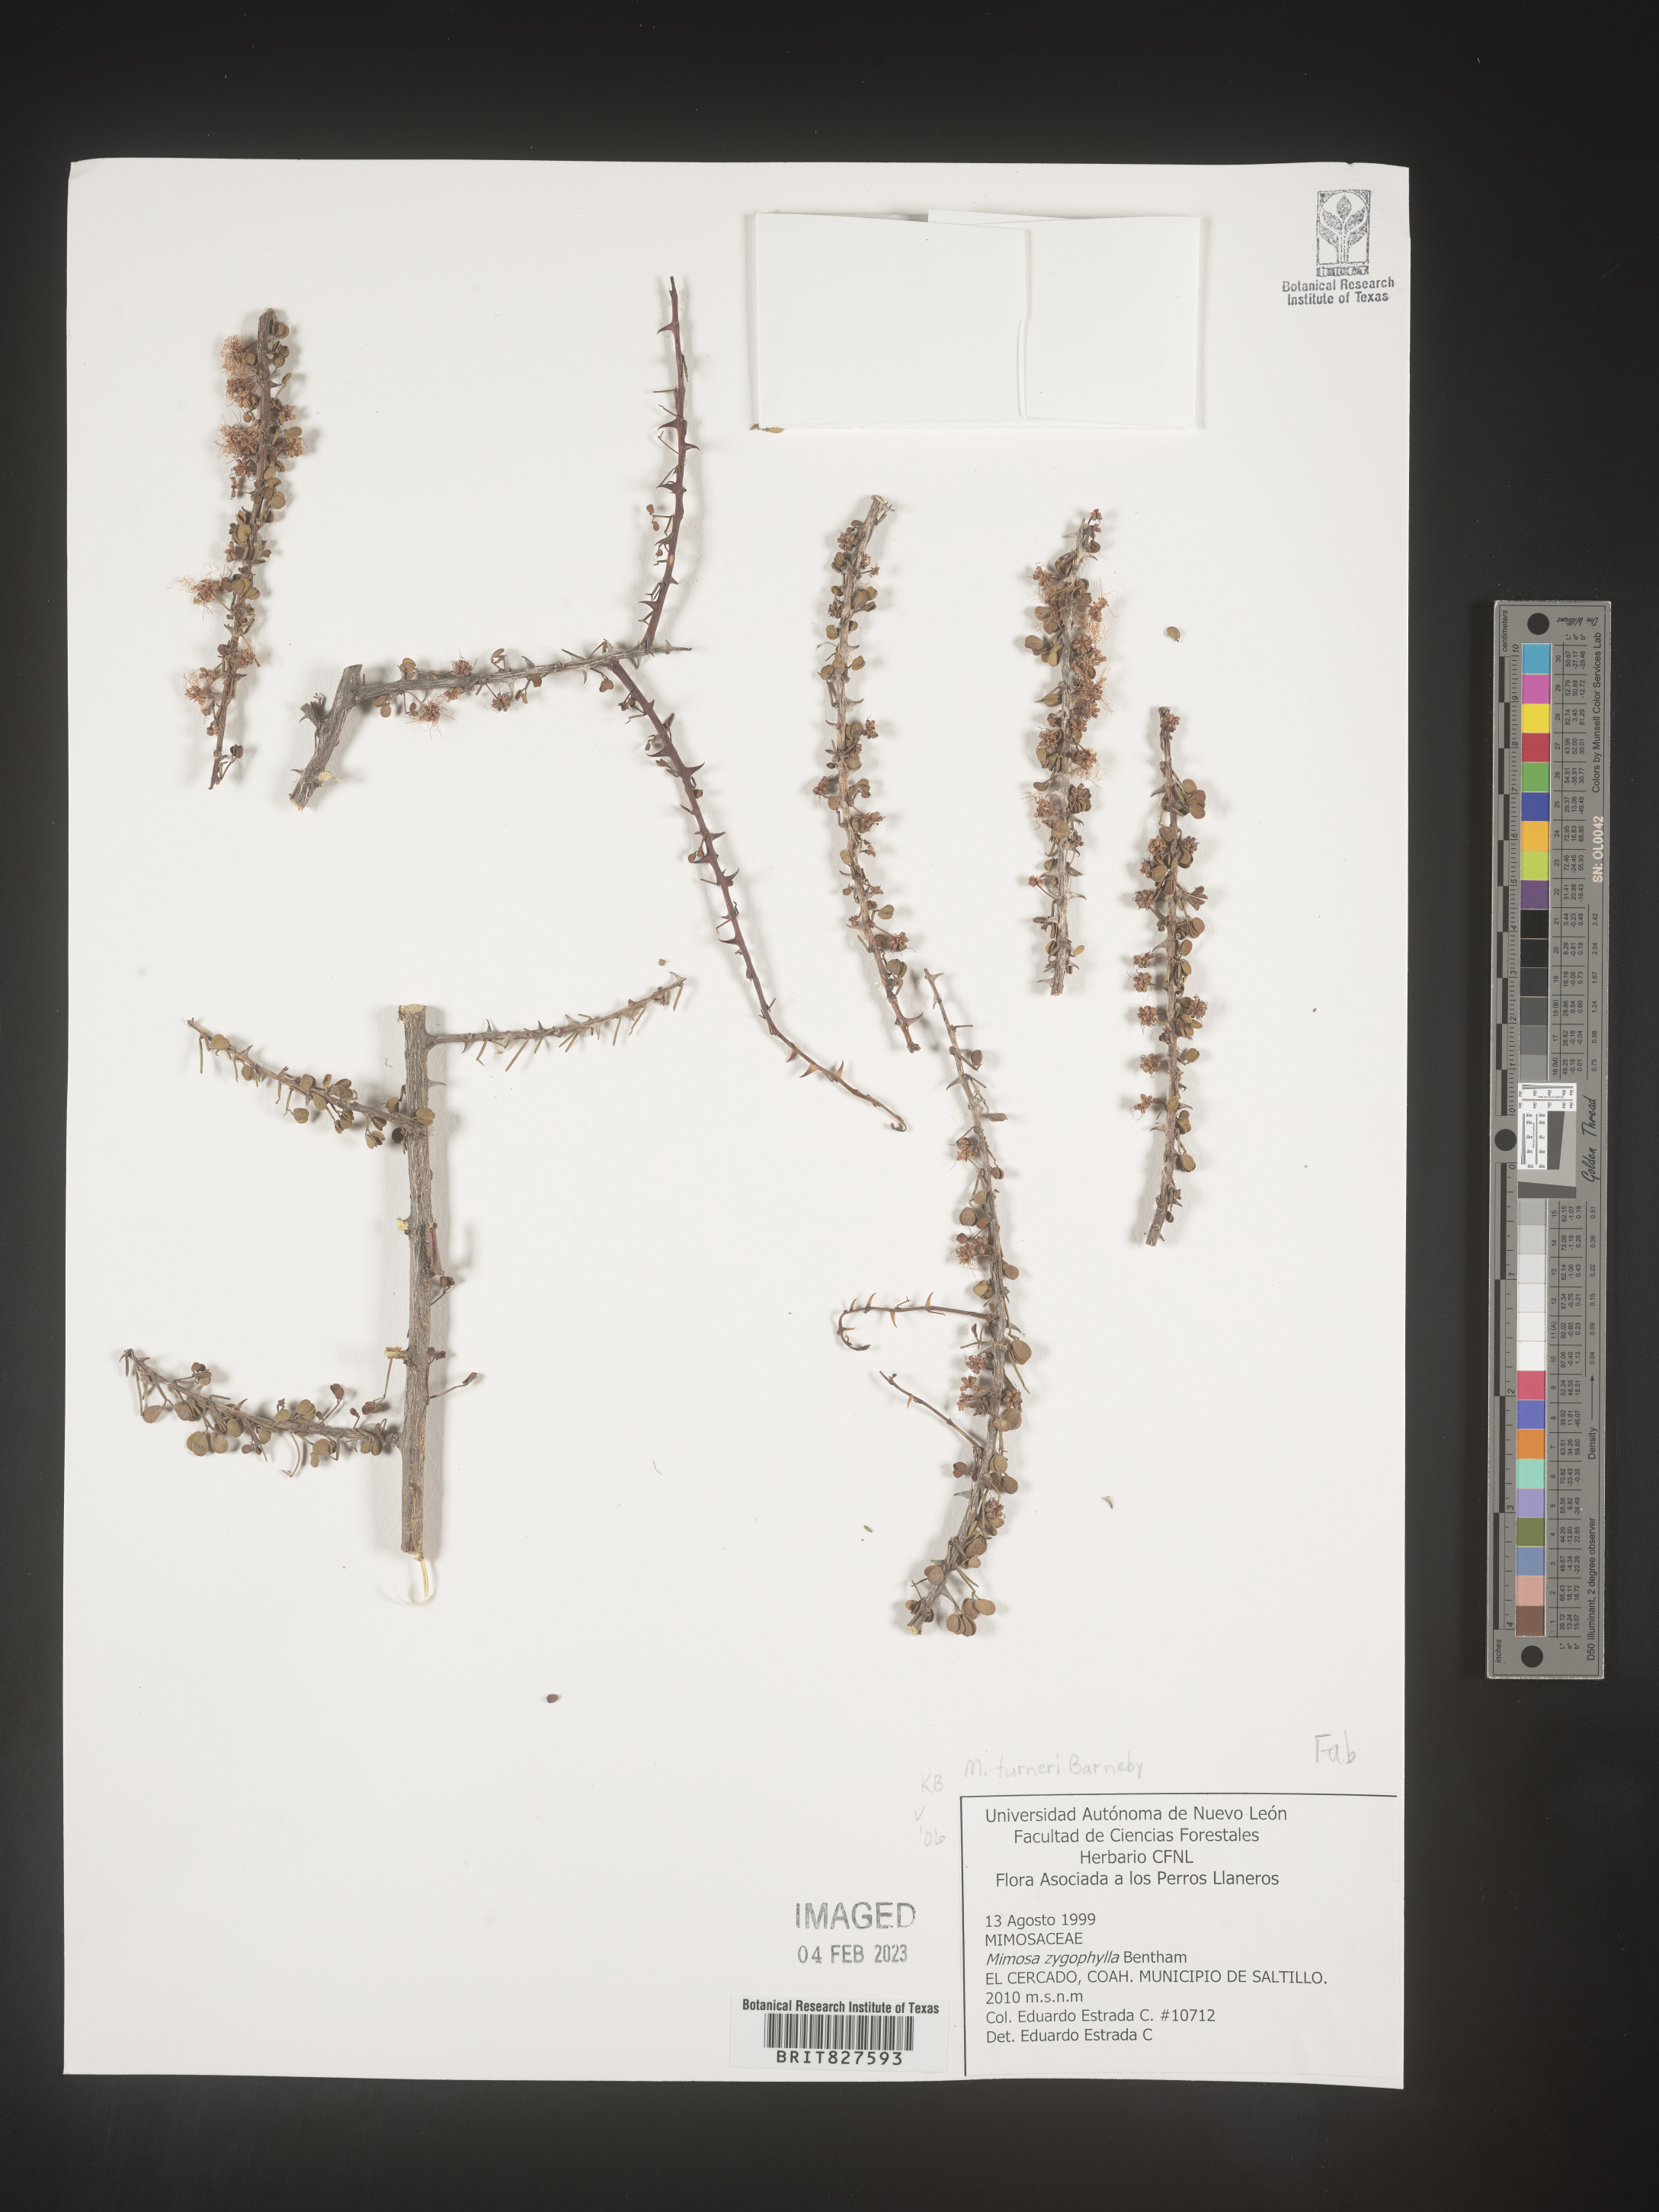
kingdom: Plantae
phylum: Tracheophyta
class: Magnoliopsida
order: Fabales
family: Fabaceae
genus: Mimosa
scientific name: Mimosa
